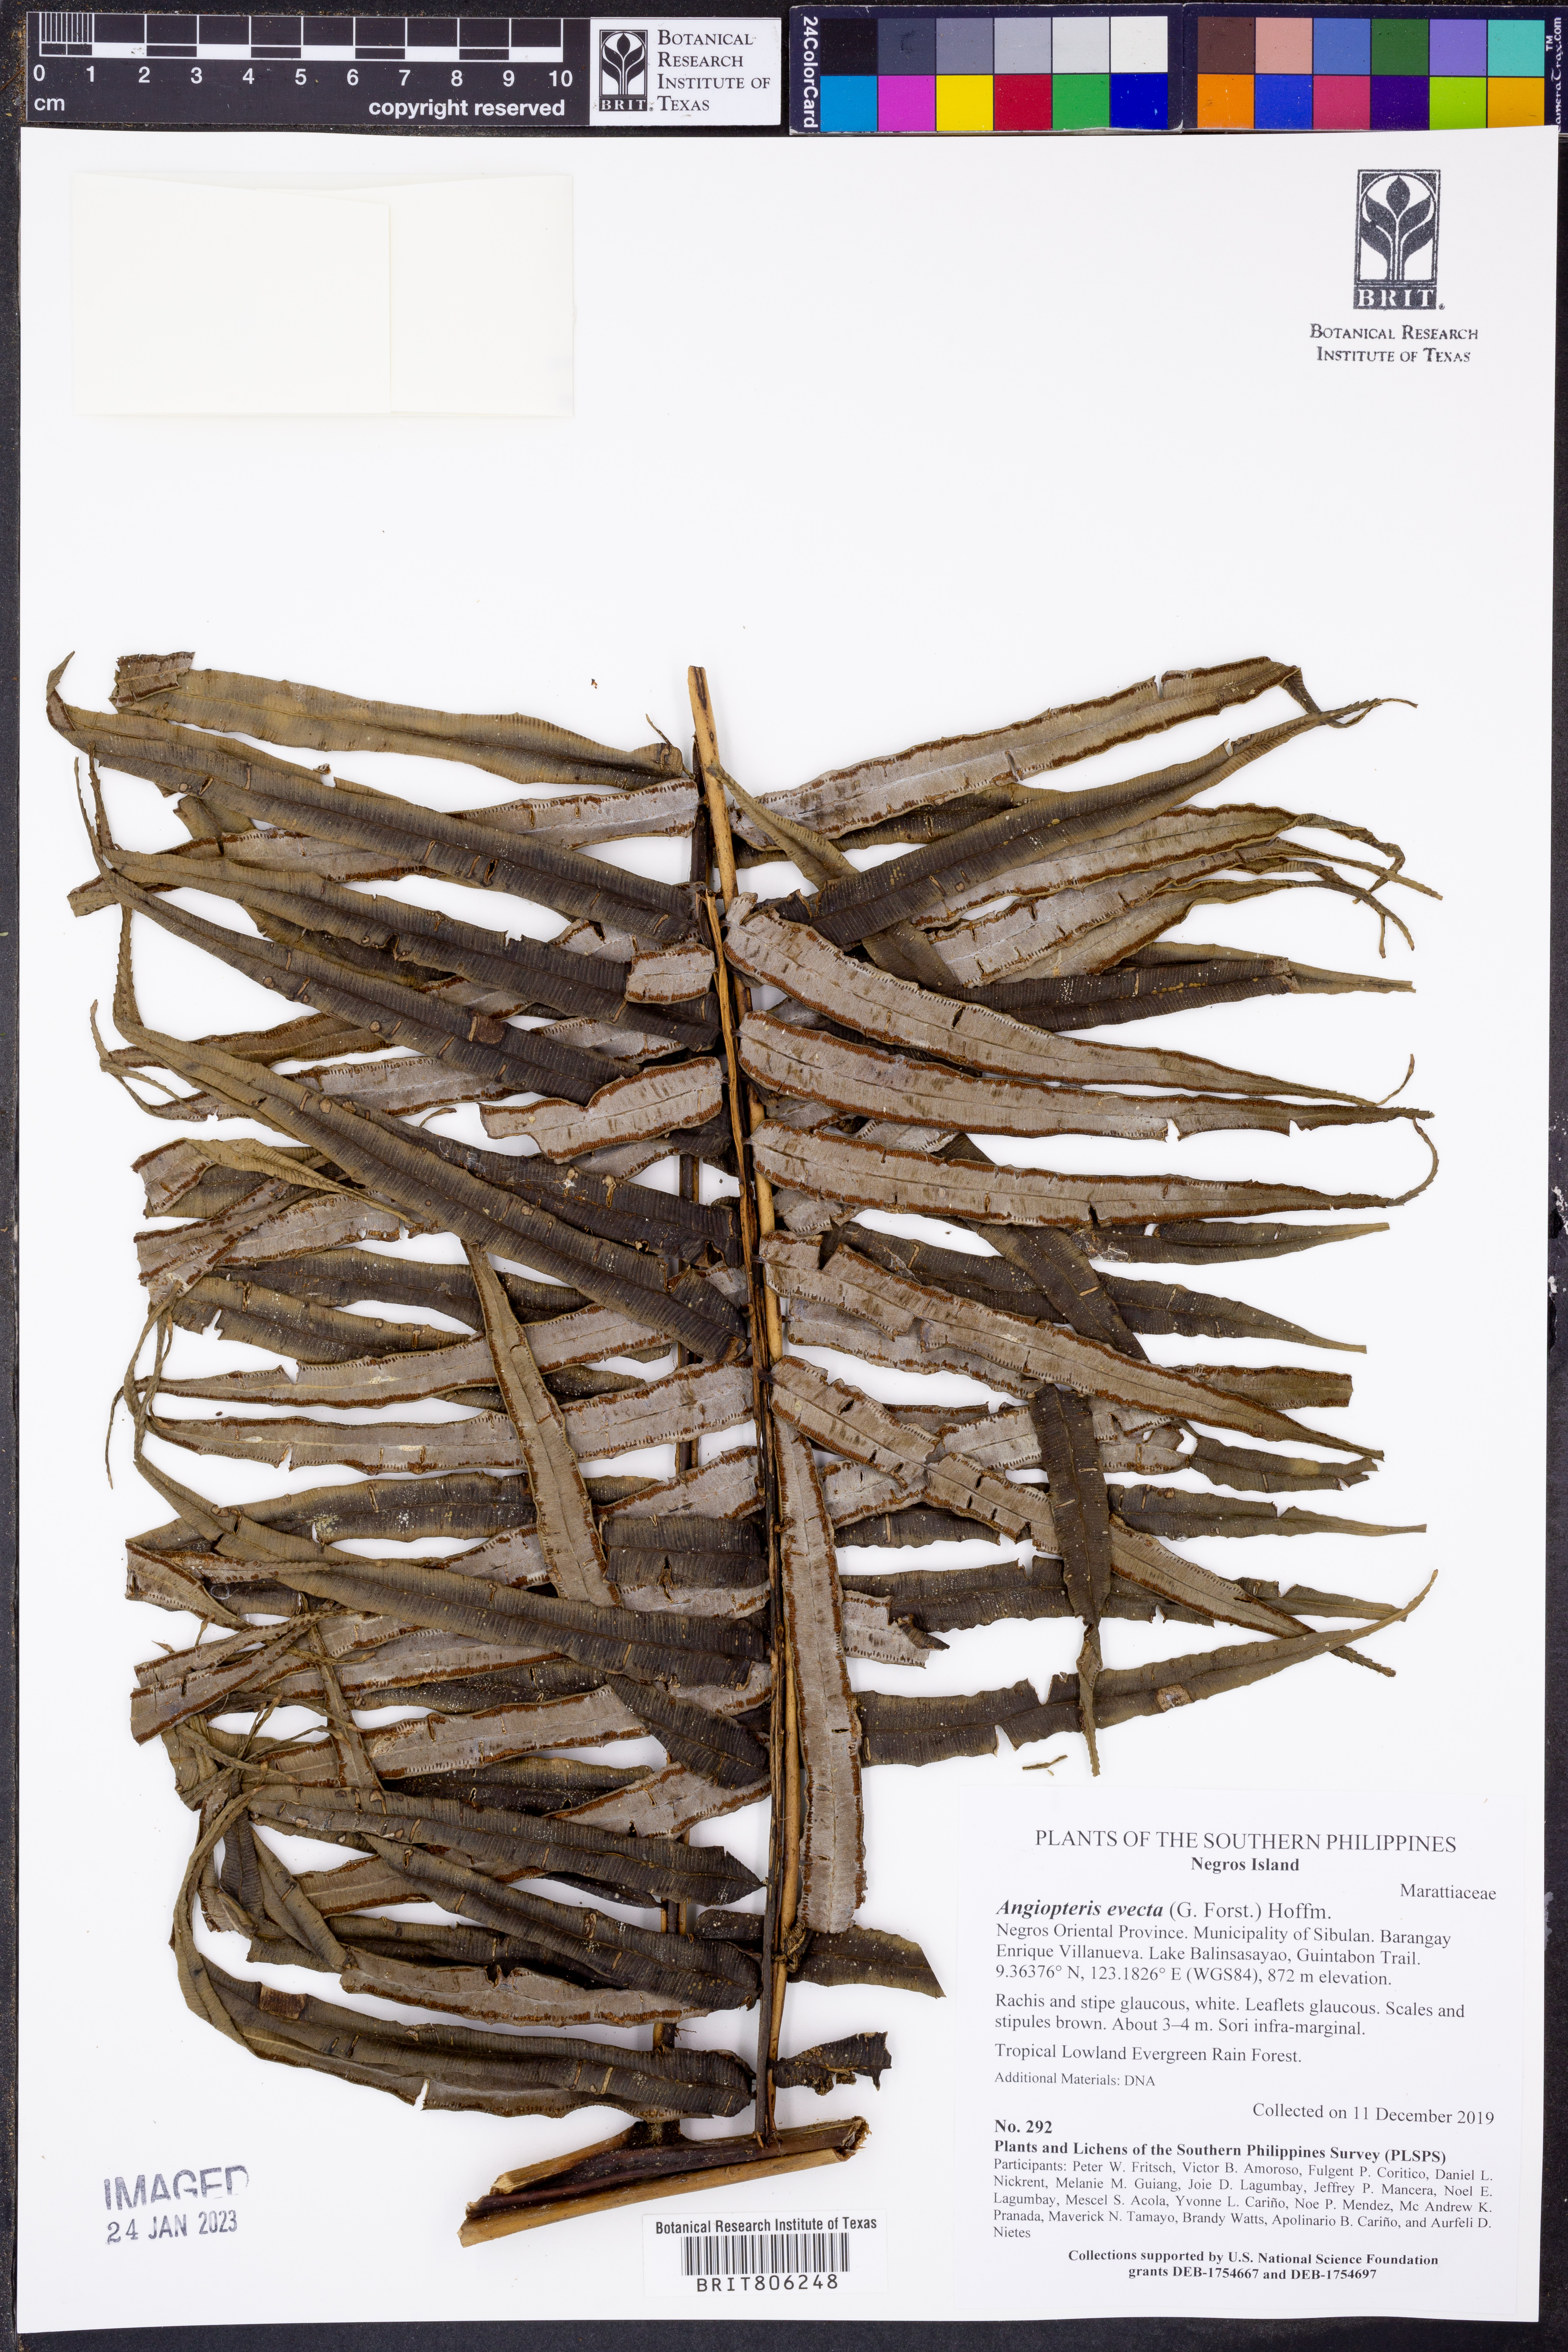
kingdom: Plantae
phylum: Tracheophyta
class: Polypodiopsida
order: Marattiales
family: Marattiaceae
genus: Angiopteris
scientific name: Angiopteris angustifolia
